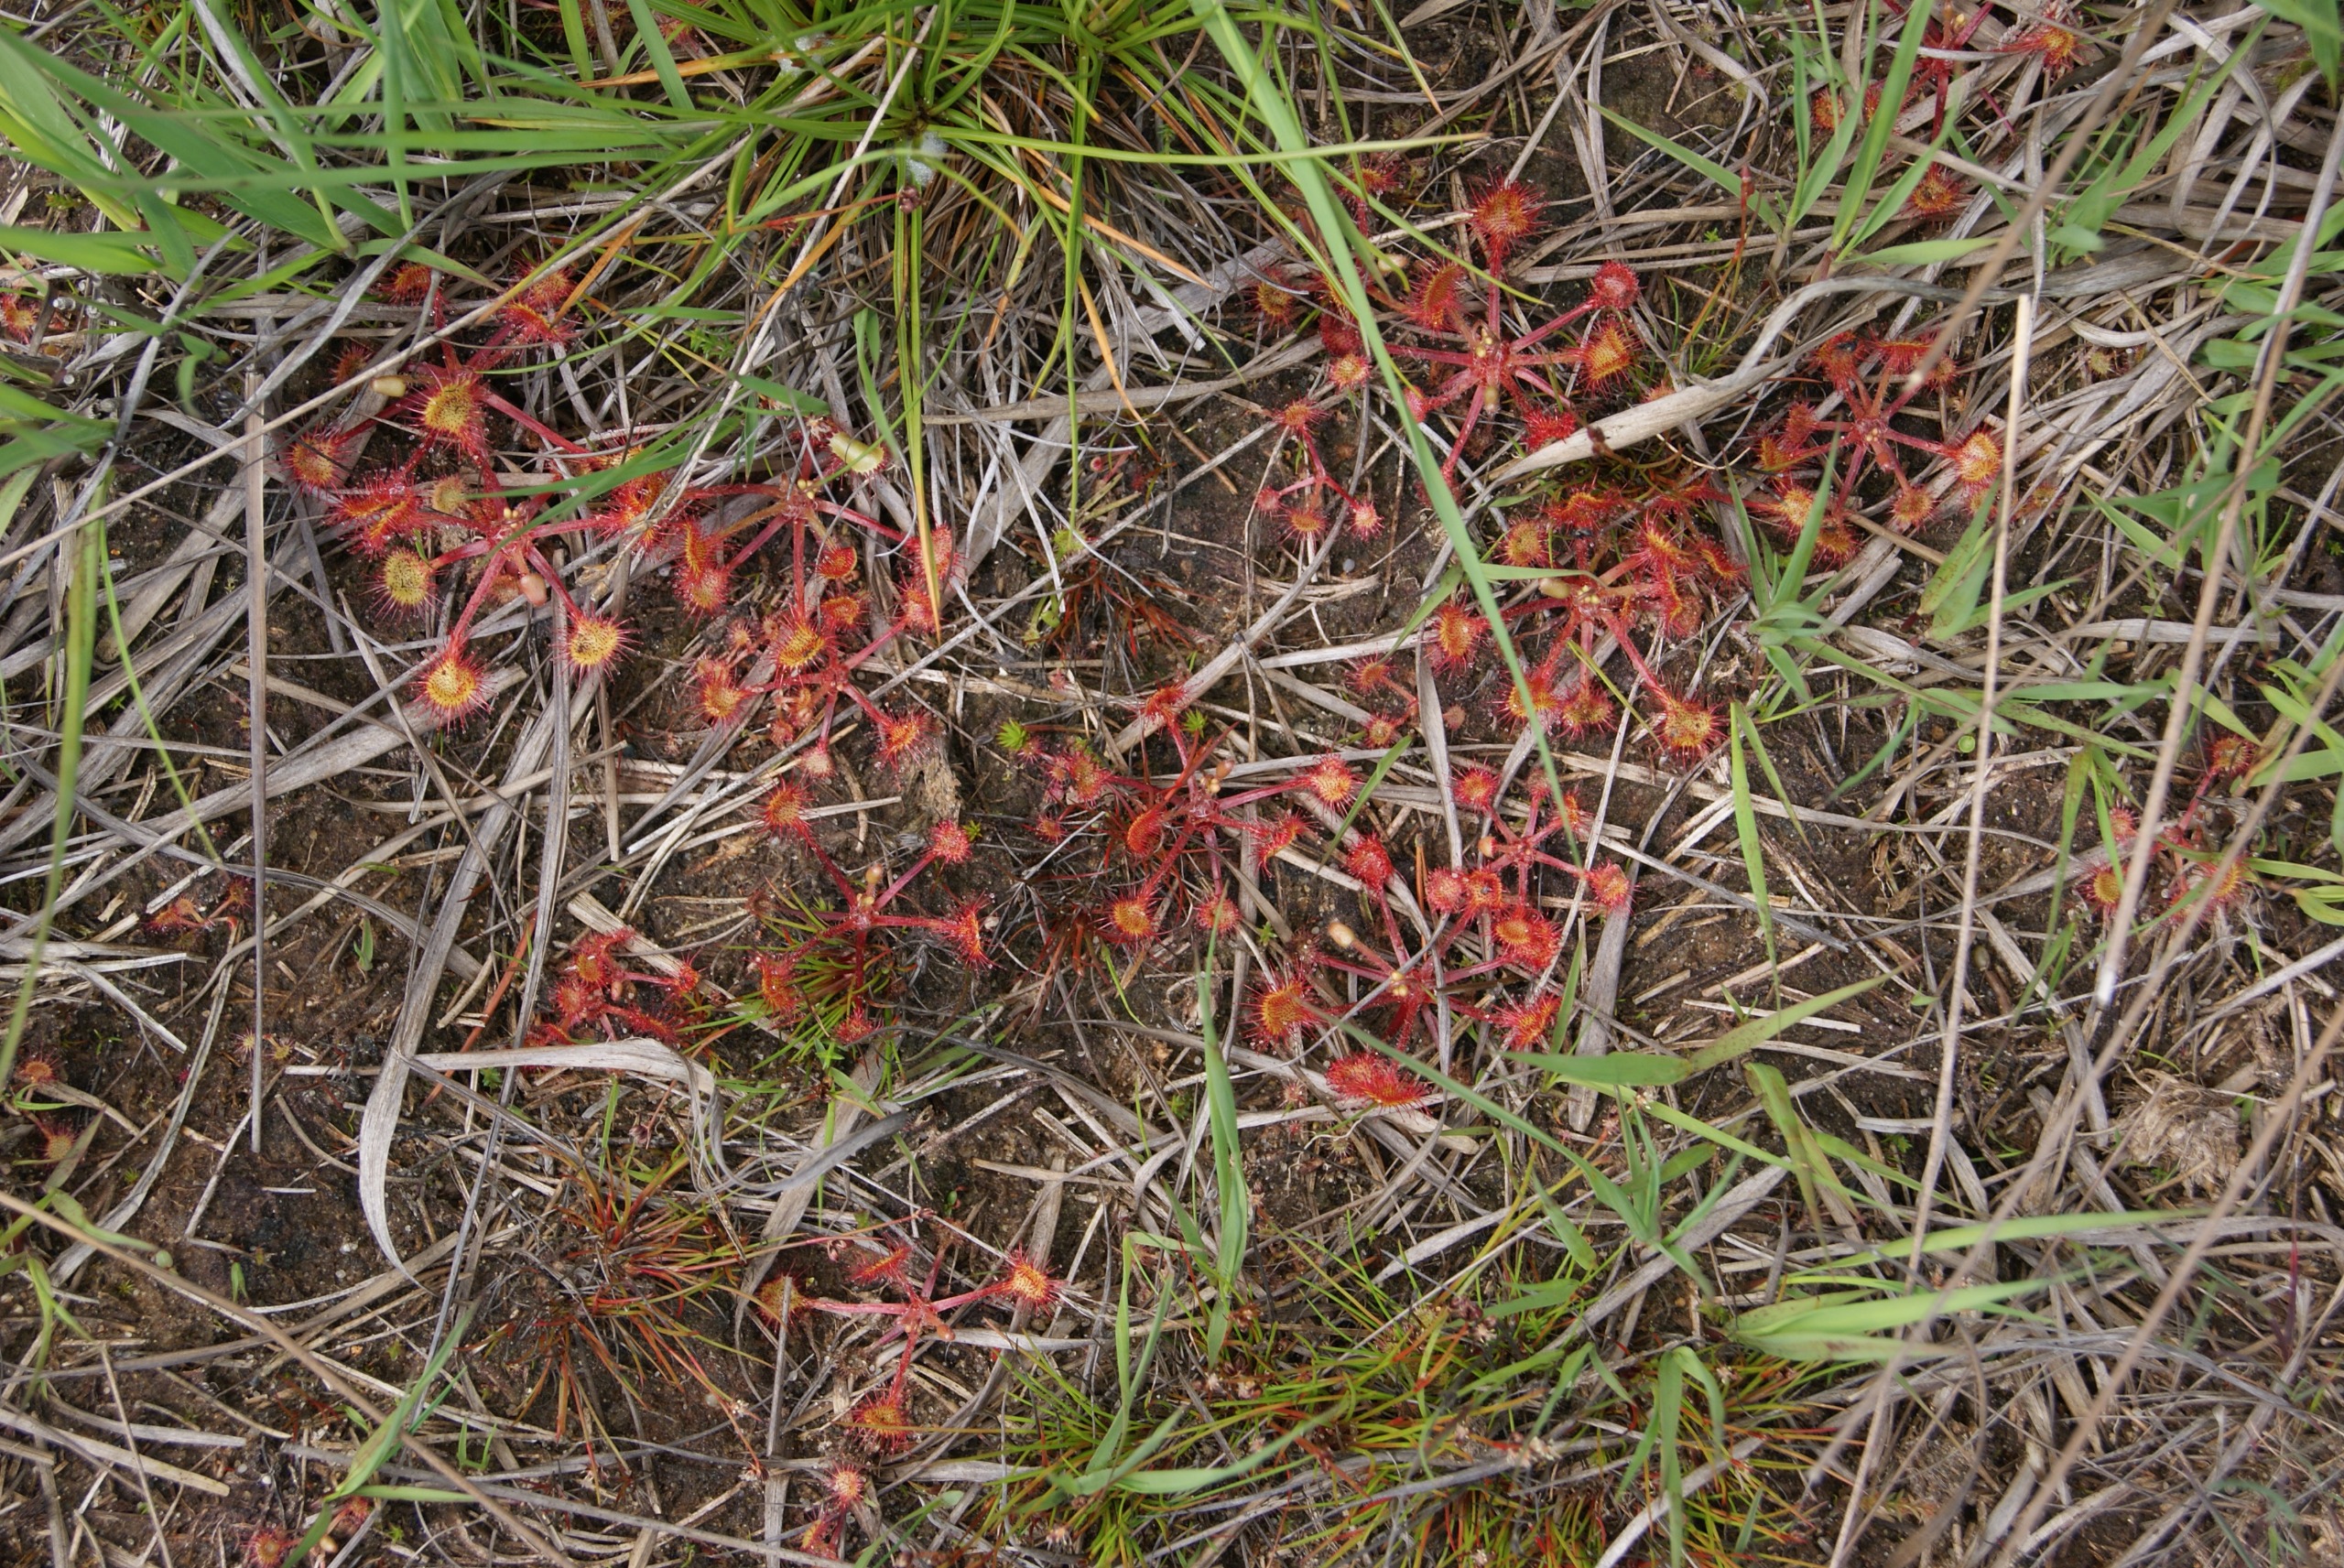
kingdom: Plantae
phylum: Tracheophyta
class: Magnoliopsida
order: Caryophyllales
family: Droseraceae
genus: Drosera
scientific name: Drosera rotundifolia
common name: Rundbladet soldug
